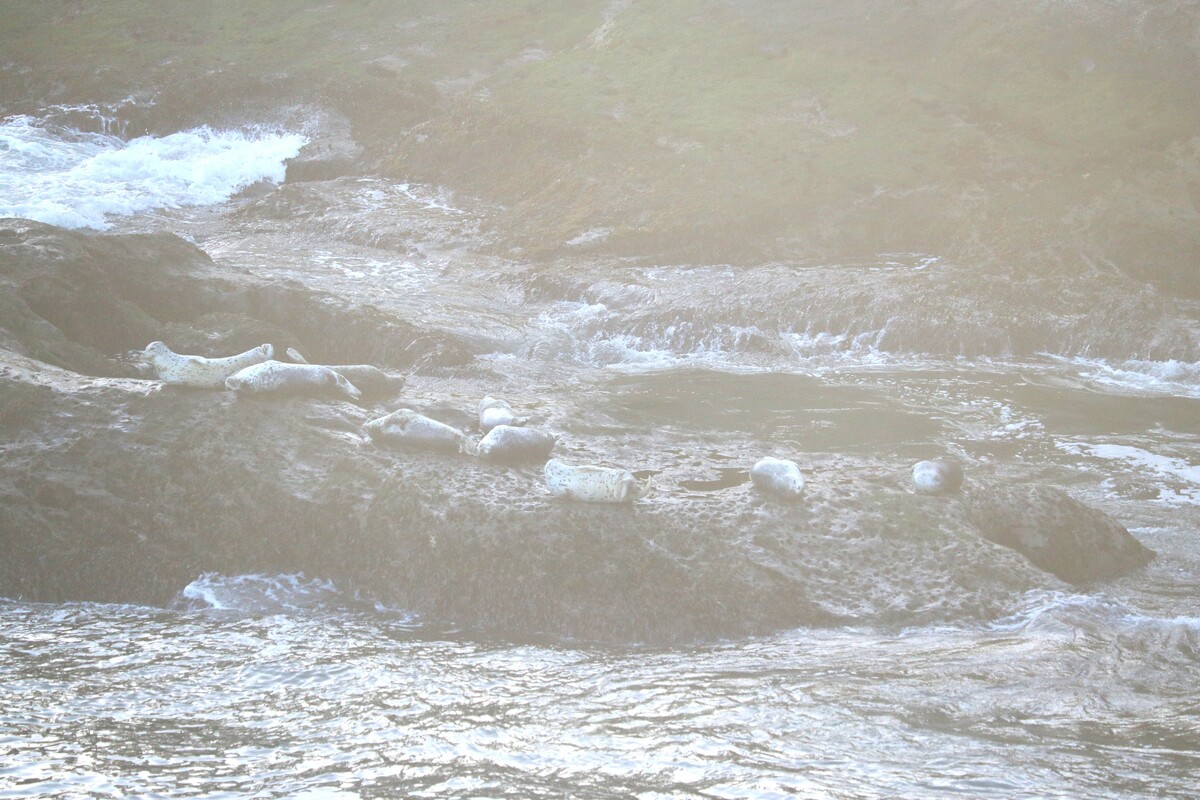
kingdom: Animalia
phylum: Chordata
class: Mammalia
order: Carnivora
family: Phocidae
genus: Phoca
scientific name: Phoca vitulina
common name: Harbor seal
